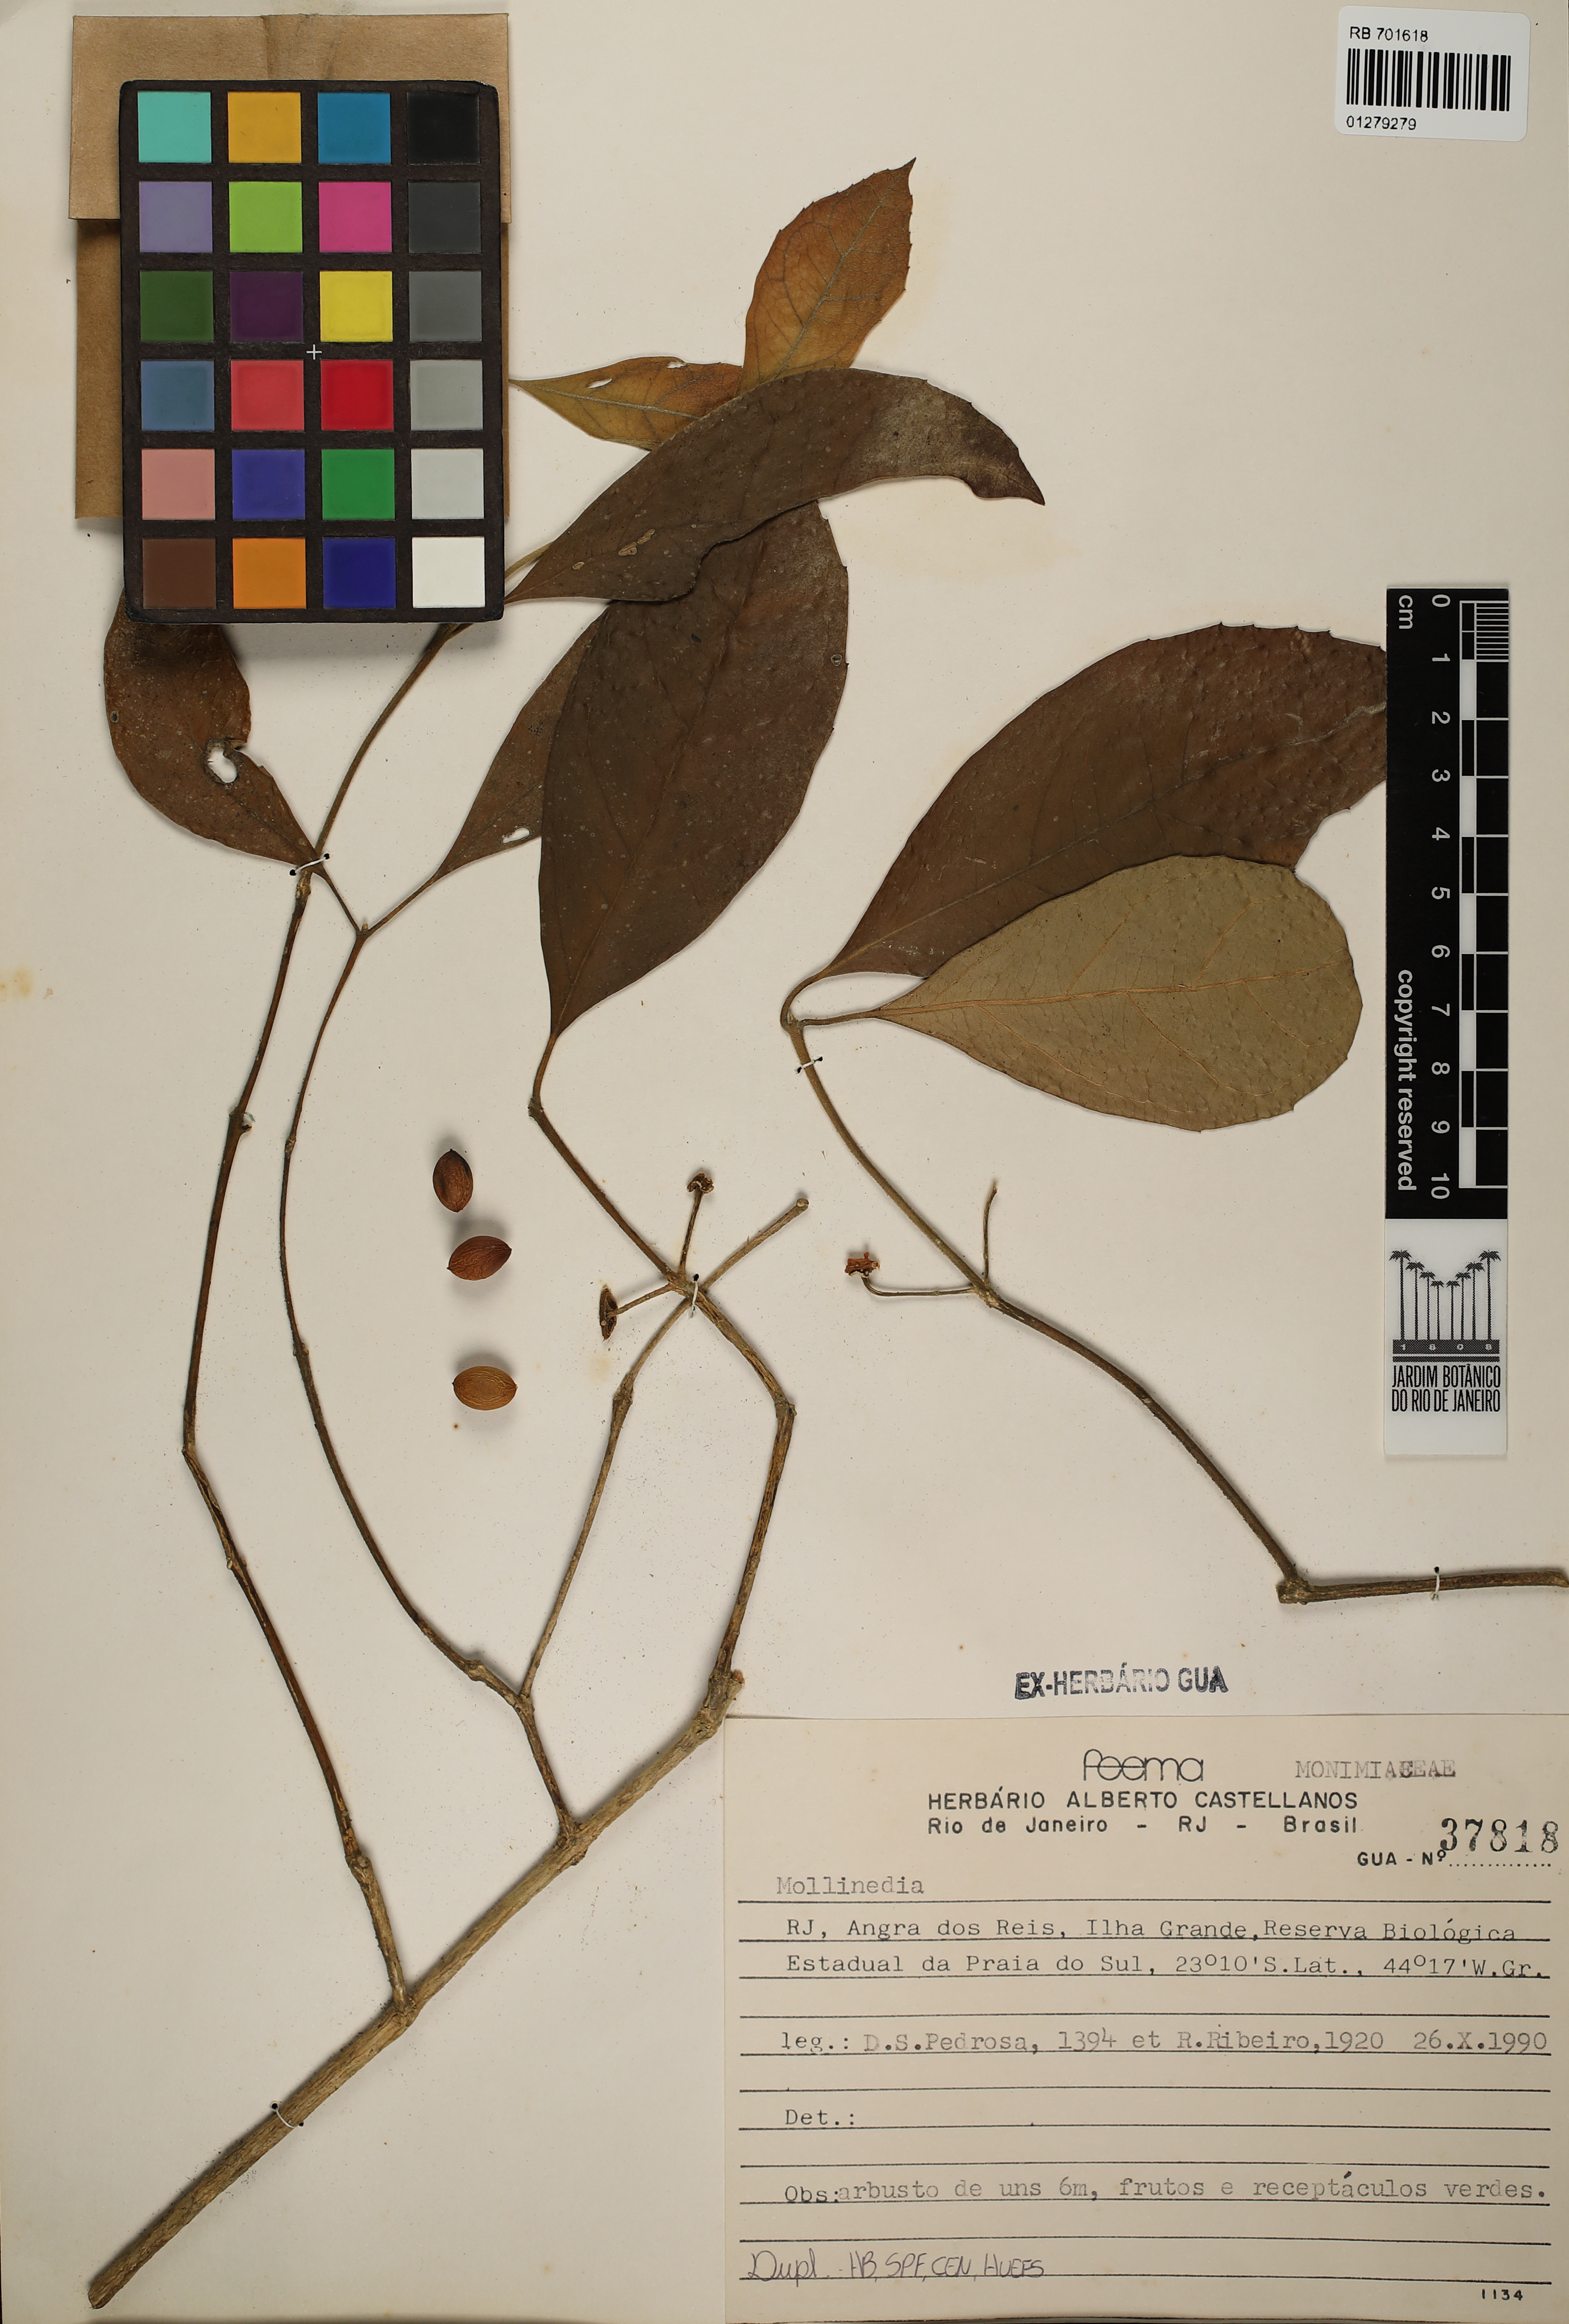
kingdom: Plantae
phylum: Tracheophyta
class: Magnoliopsida
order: Laurales
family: Monimiaceae
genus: Mollinedia
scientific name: Mollinedia
